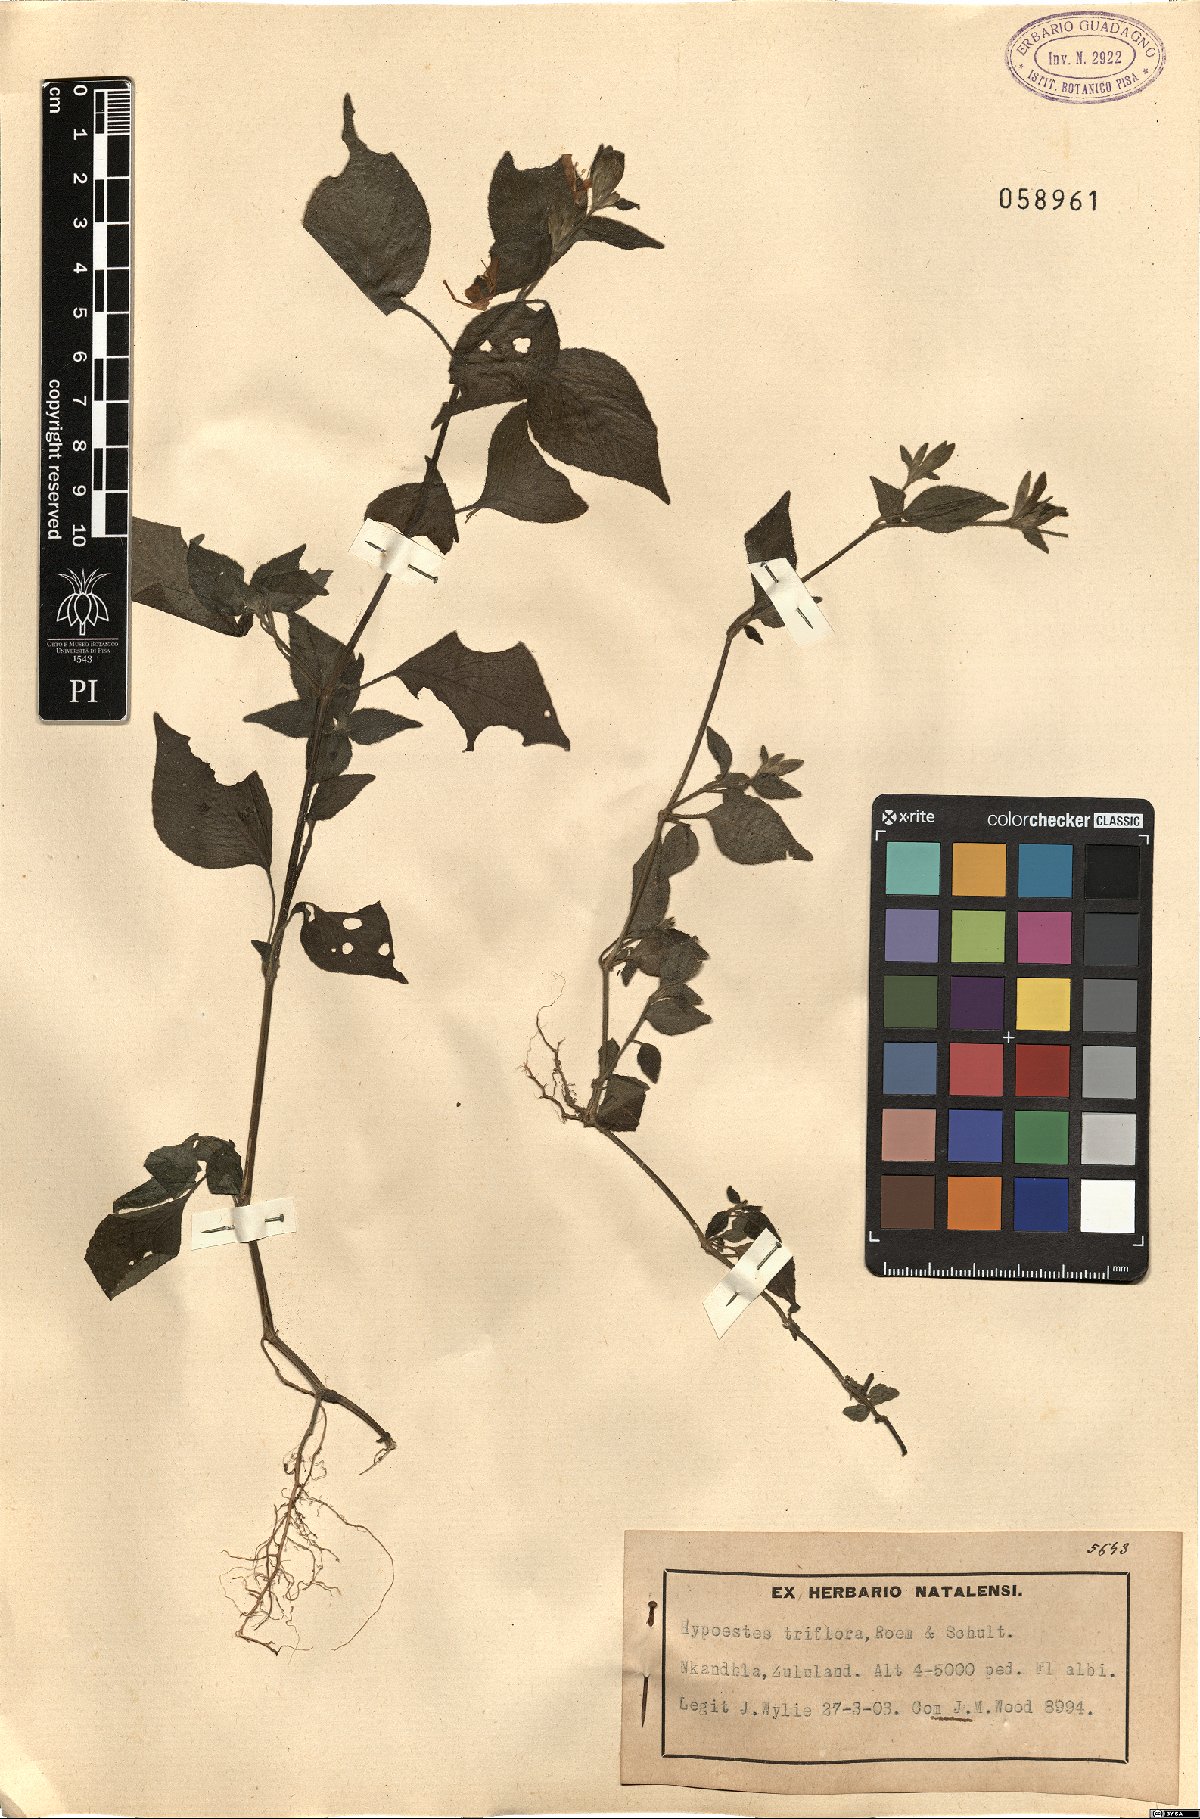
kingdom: Plantae
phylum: Tracheophyta
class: Magnoliopsida
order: Lamiales
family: Acanthaceae
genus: Hypoestes
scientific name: Hypoestes triflora
